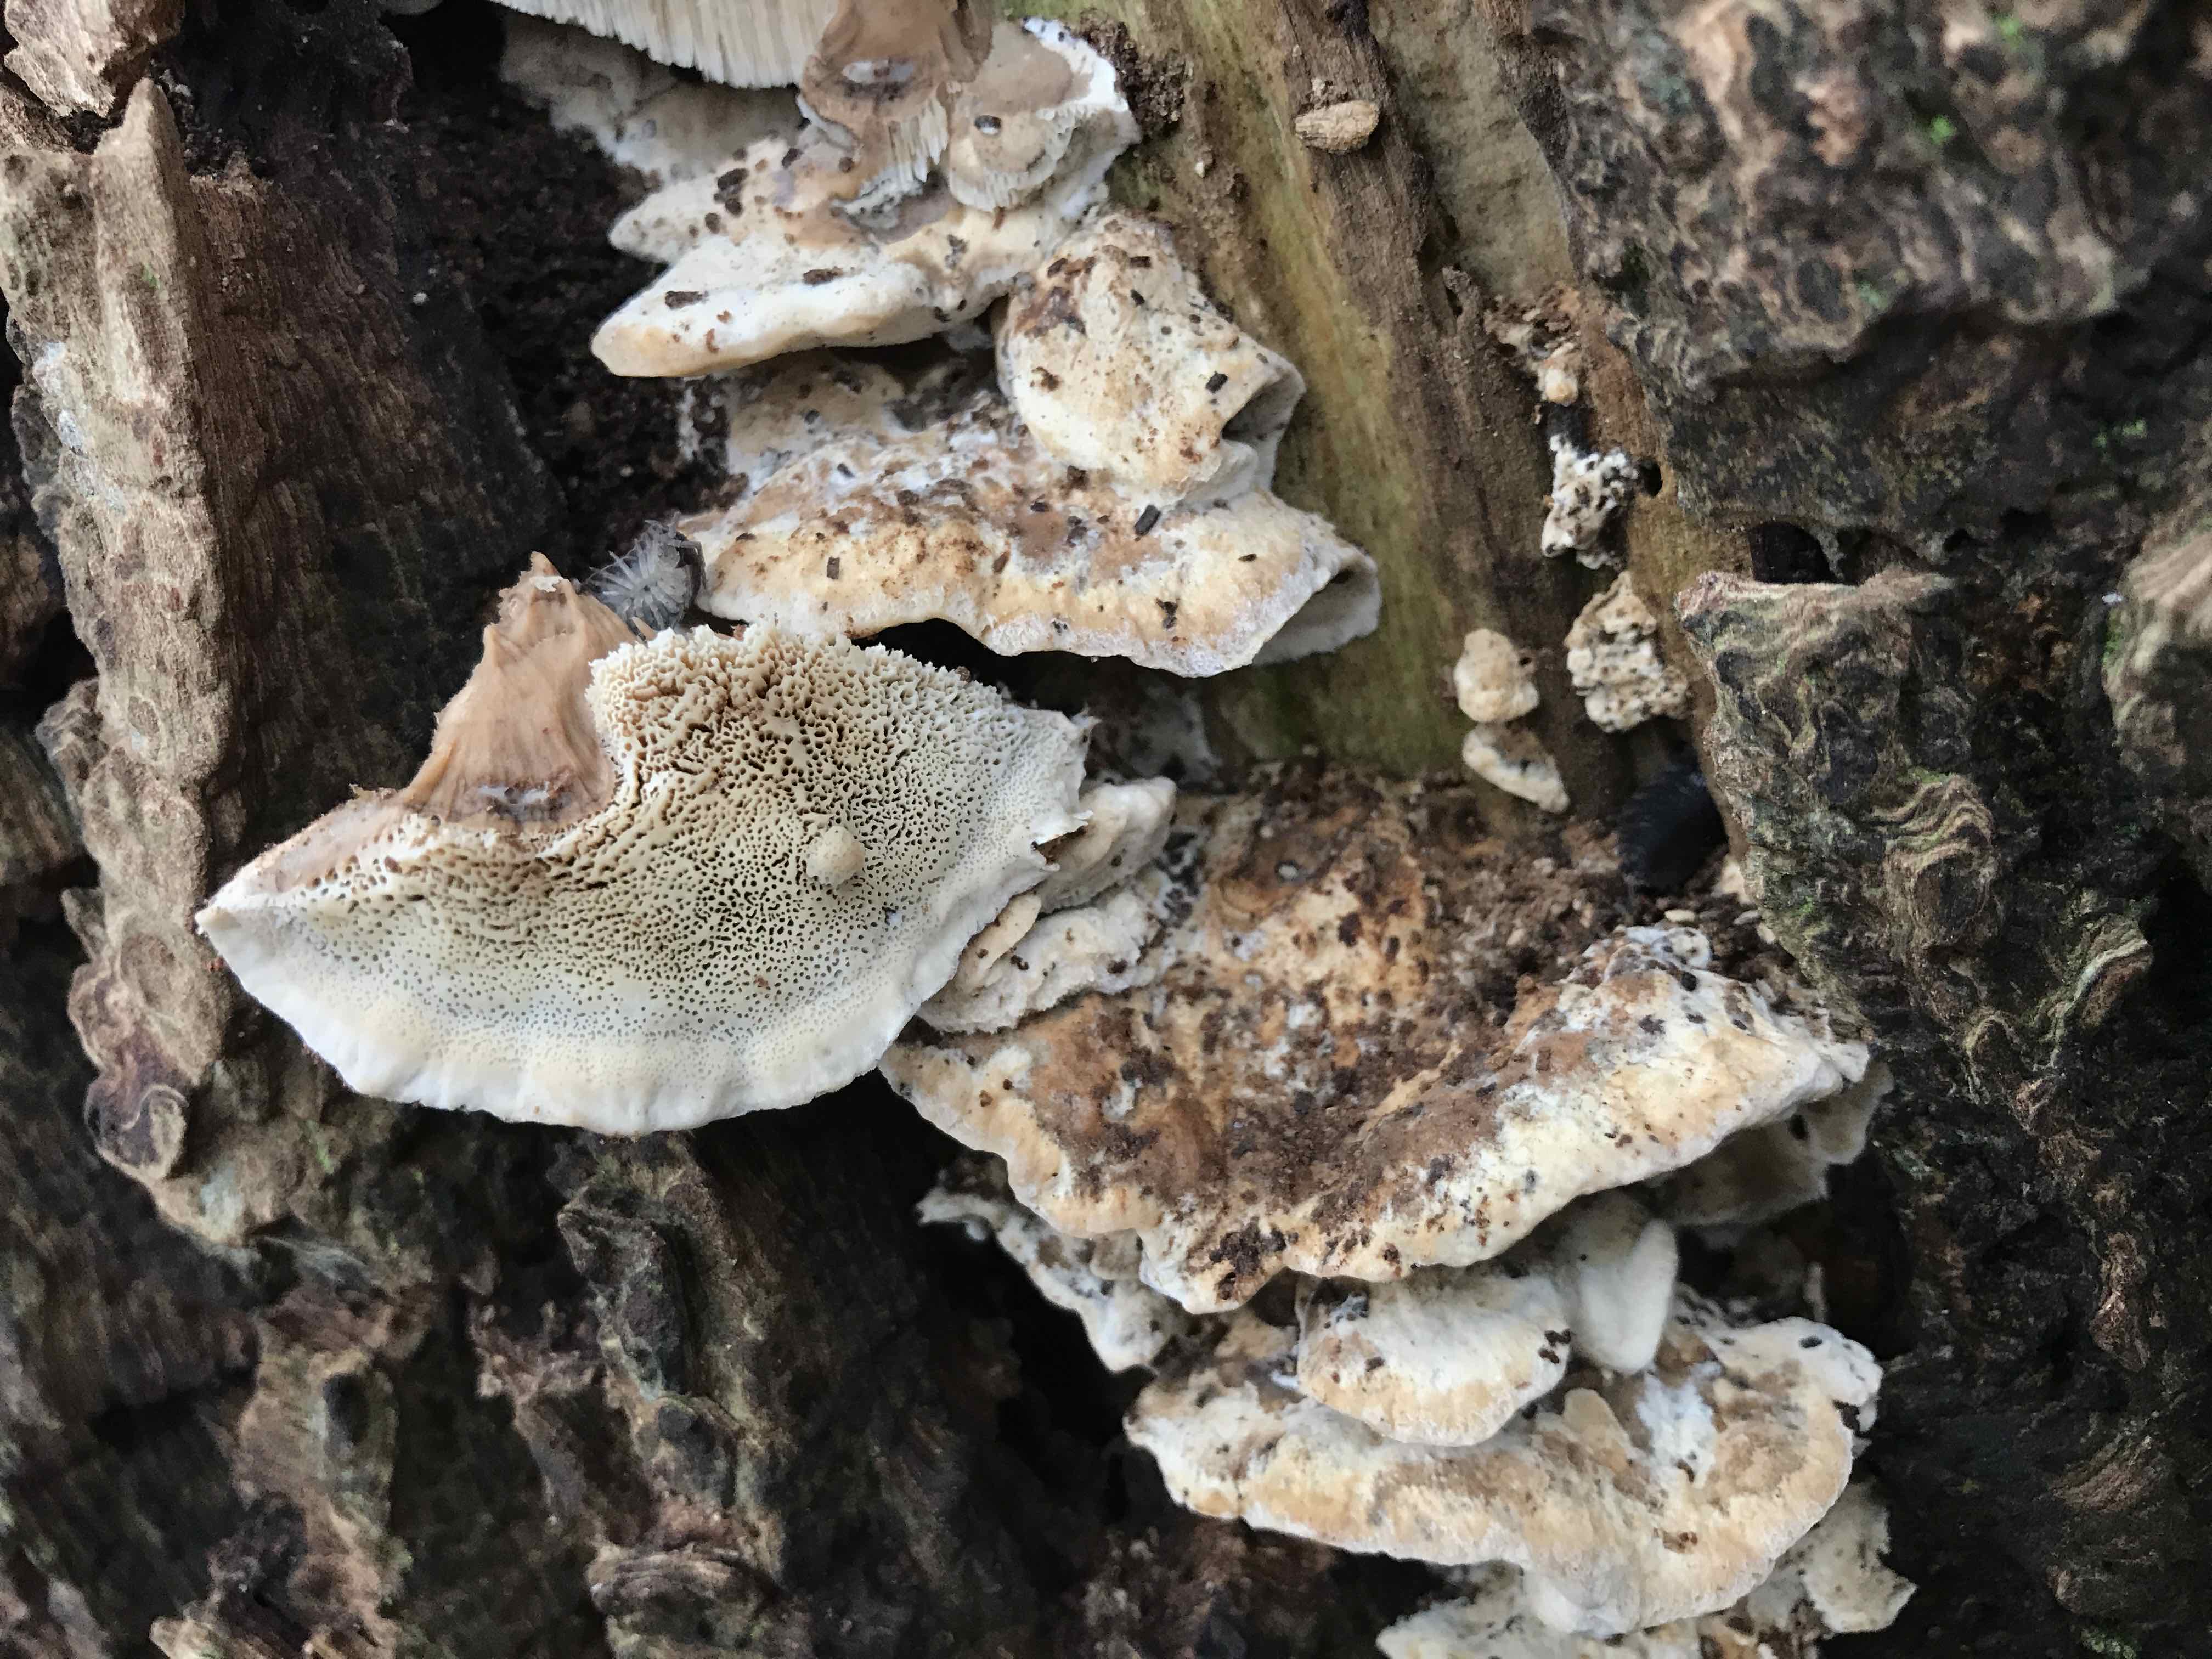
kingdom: Fungi
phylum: Basidiomycota
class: Agaricomycetes
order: Polyporales
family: Phanerochaetaceae
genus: Bjerkandera
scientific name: Bjerkandera fumosa
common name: grågul sodporesvamp
